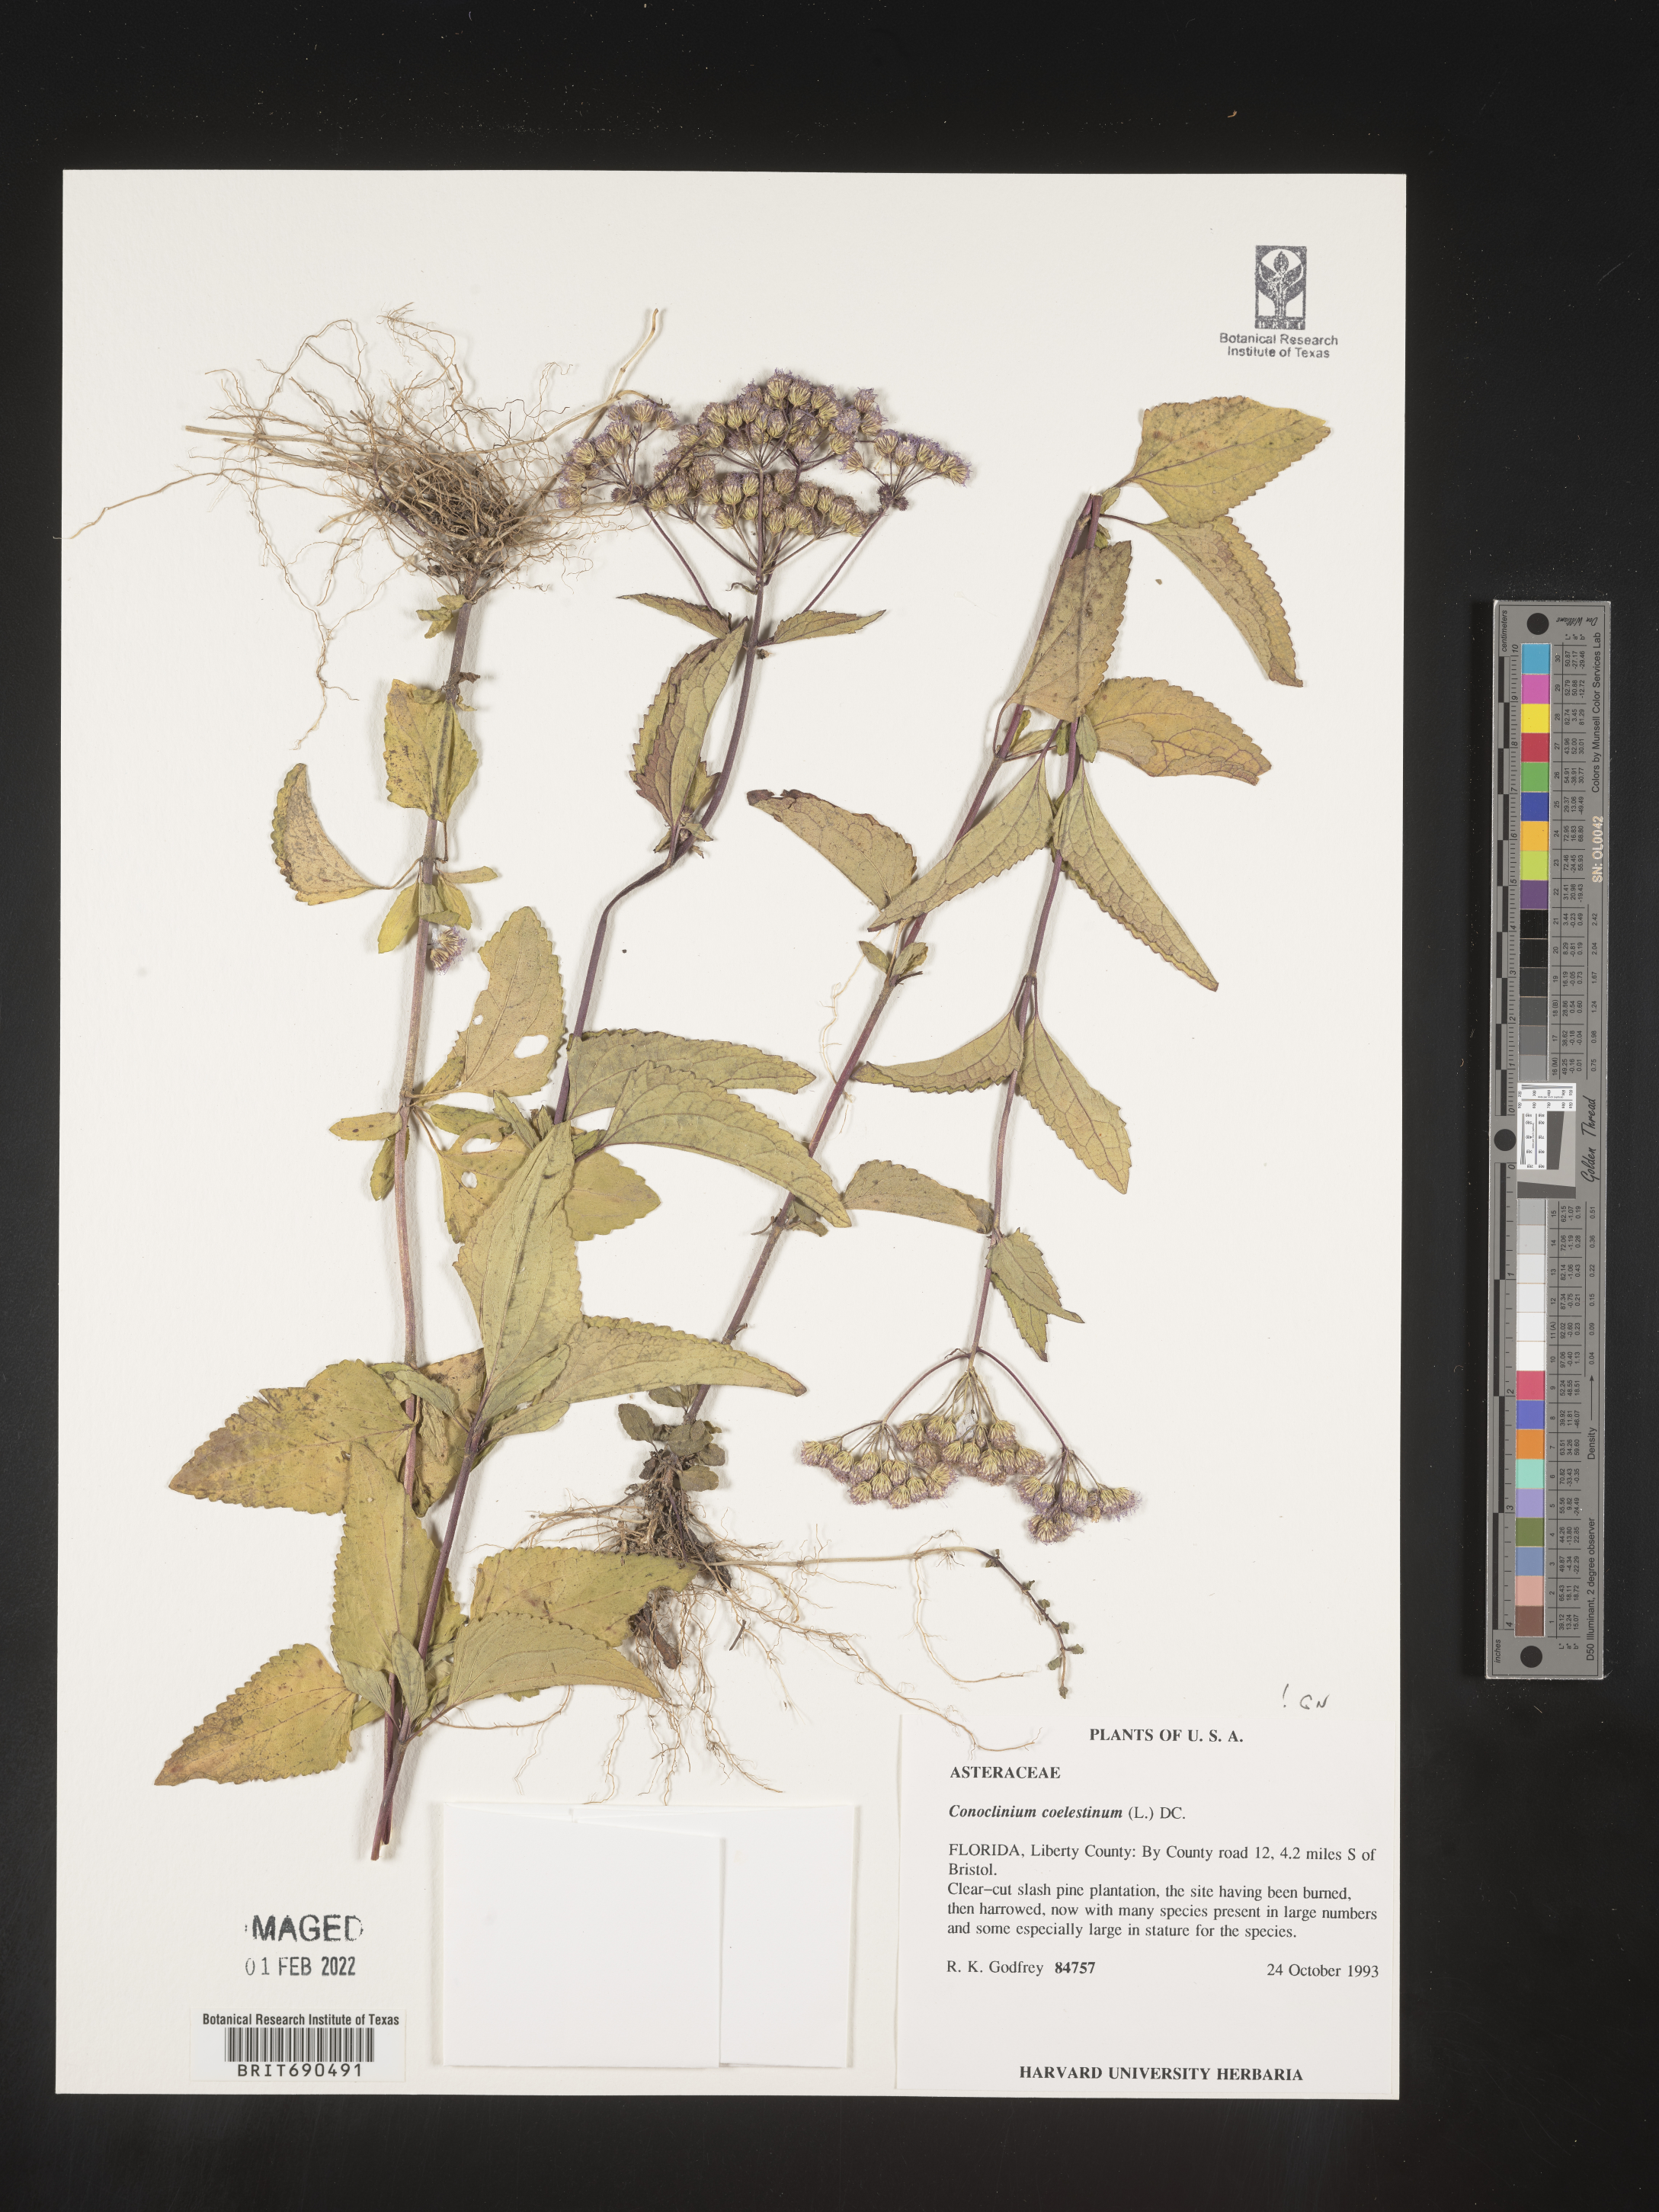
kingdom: Plantae
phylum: Tracheophyta
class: Magnoliopsida
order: Asterales
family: Asteraceae
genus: Conoclinium
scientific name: Conoclinium coelestinum
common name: Blue mistflower
